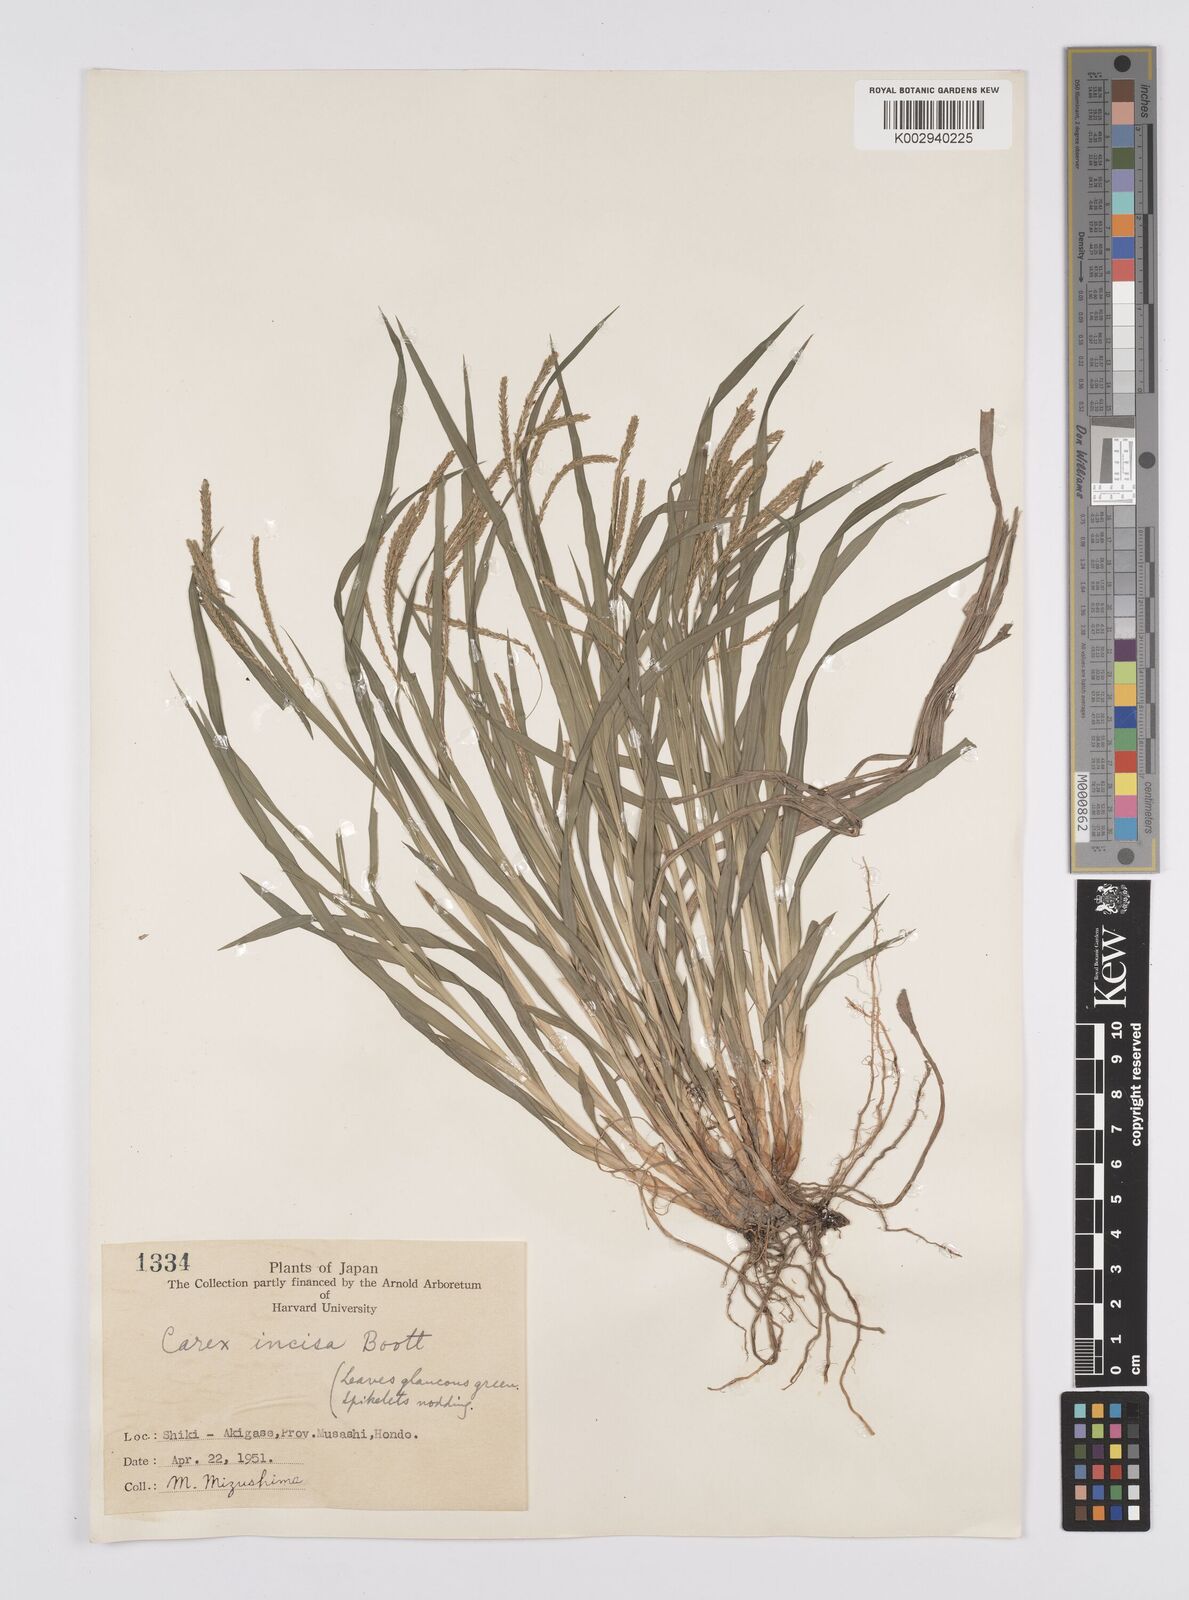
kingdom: Plantae
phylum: Tracheophyta
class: Liliopsida
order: Poales
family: Cyperaceae
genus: Carex
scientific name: Carex incisa
